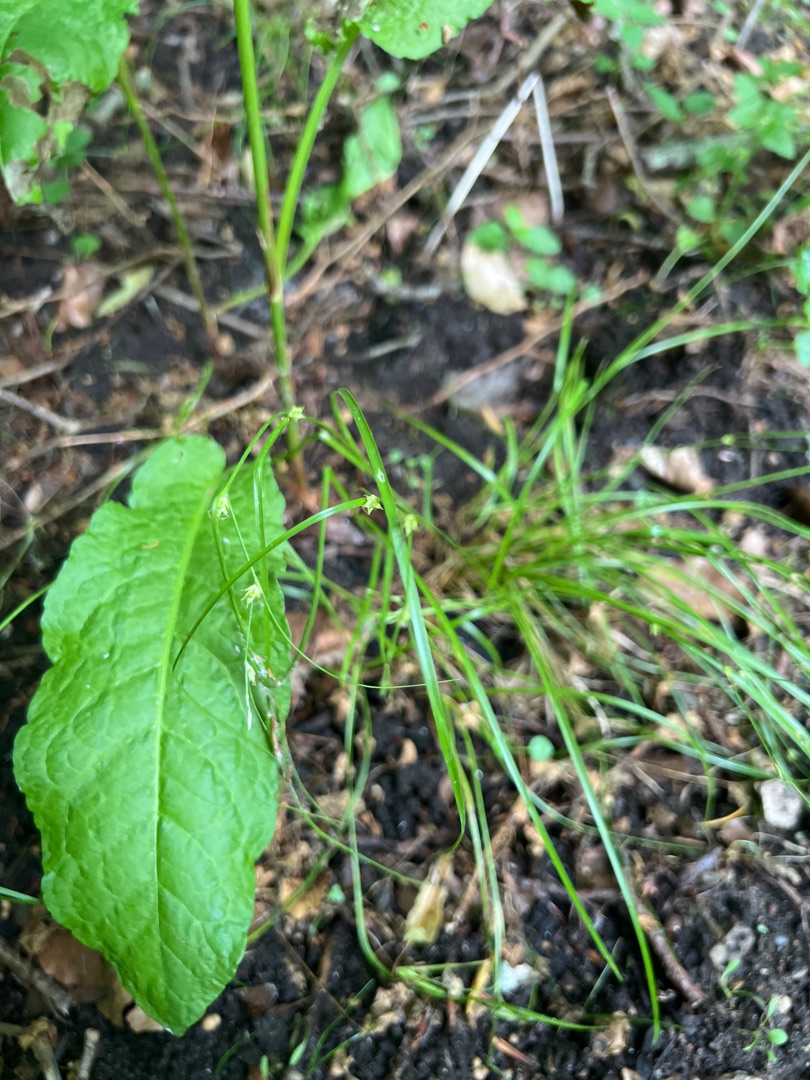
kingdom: Plantae
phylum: Tracheophyta
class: Liliopsida
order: Poales
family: Cyperaceae
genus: Carex
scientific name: Carex remota
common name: Akselblomstret star
